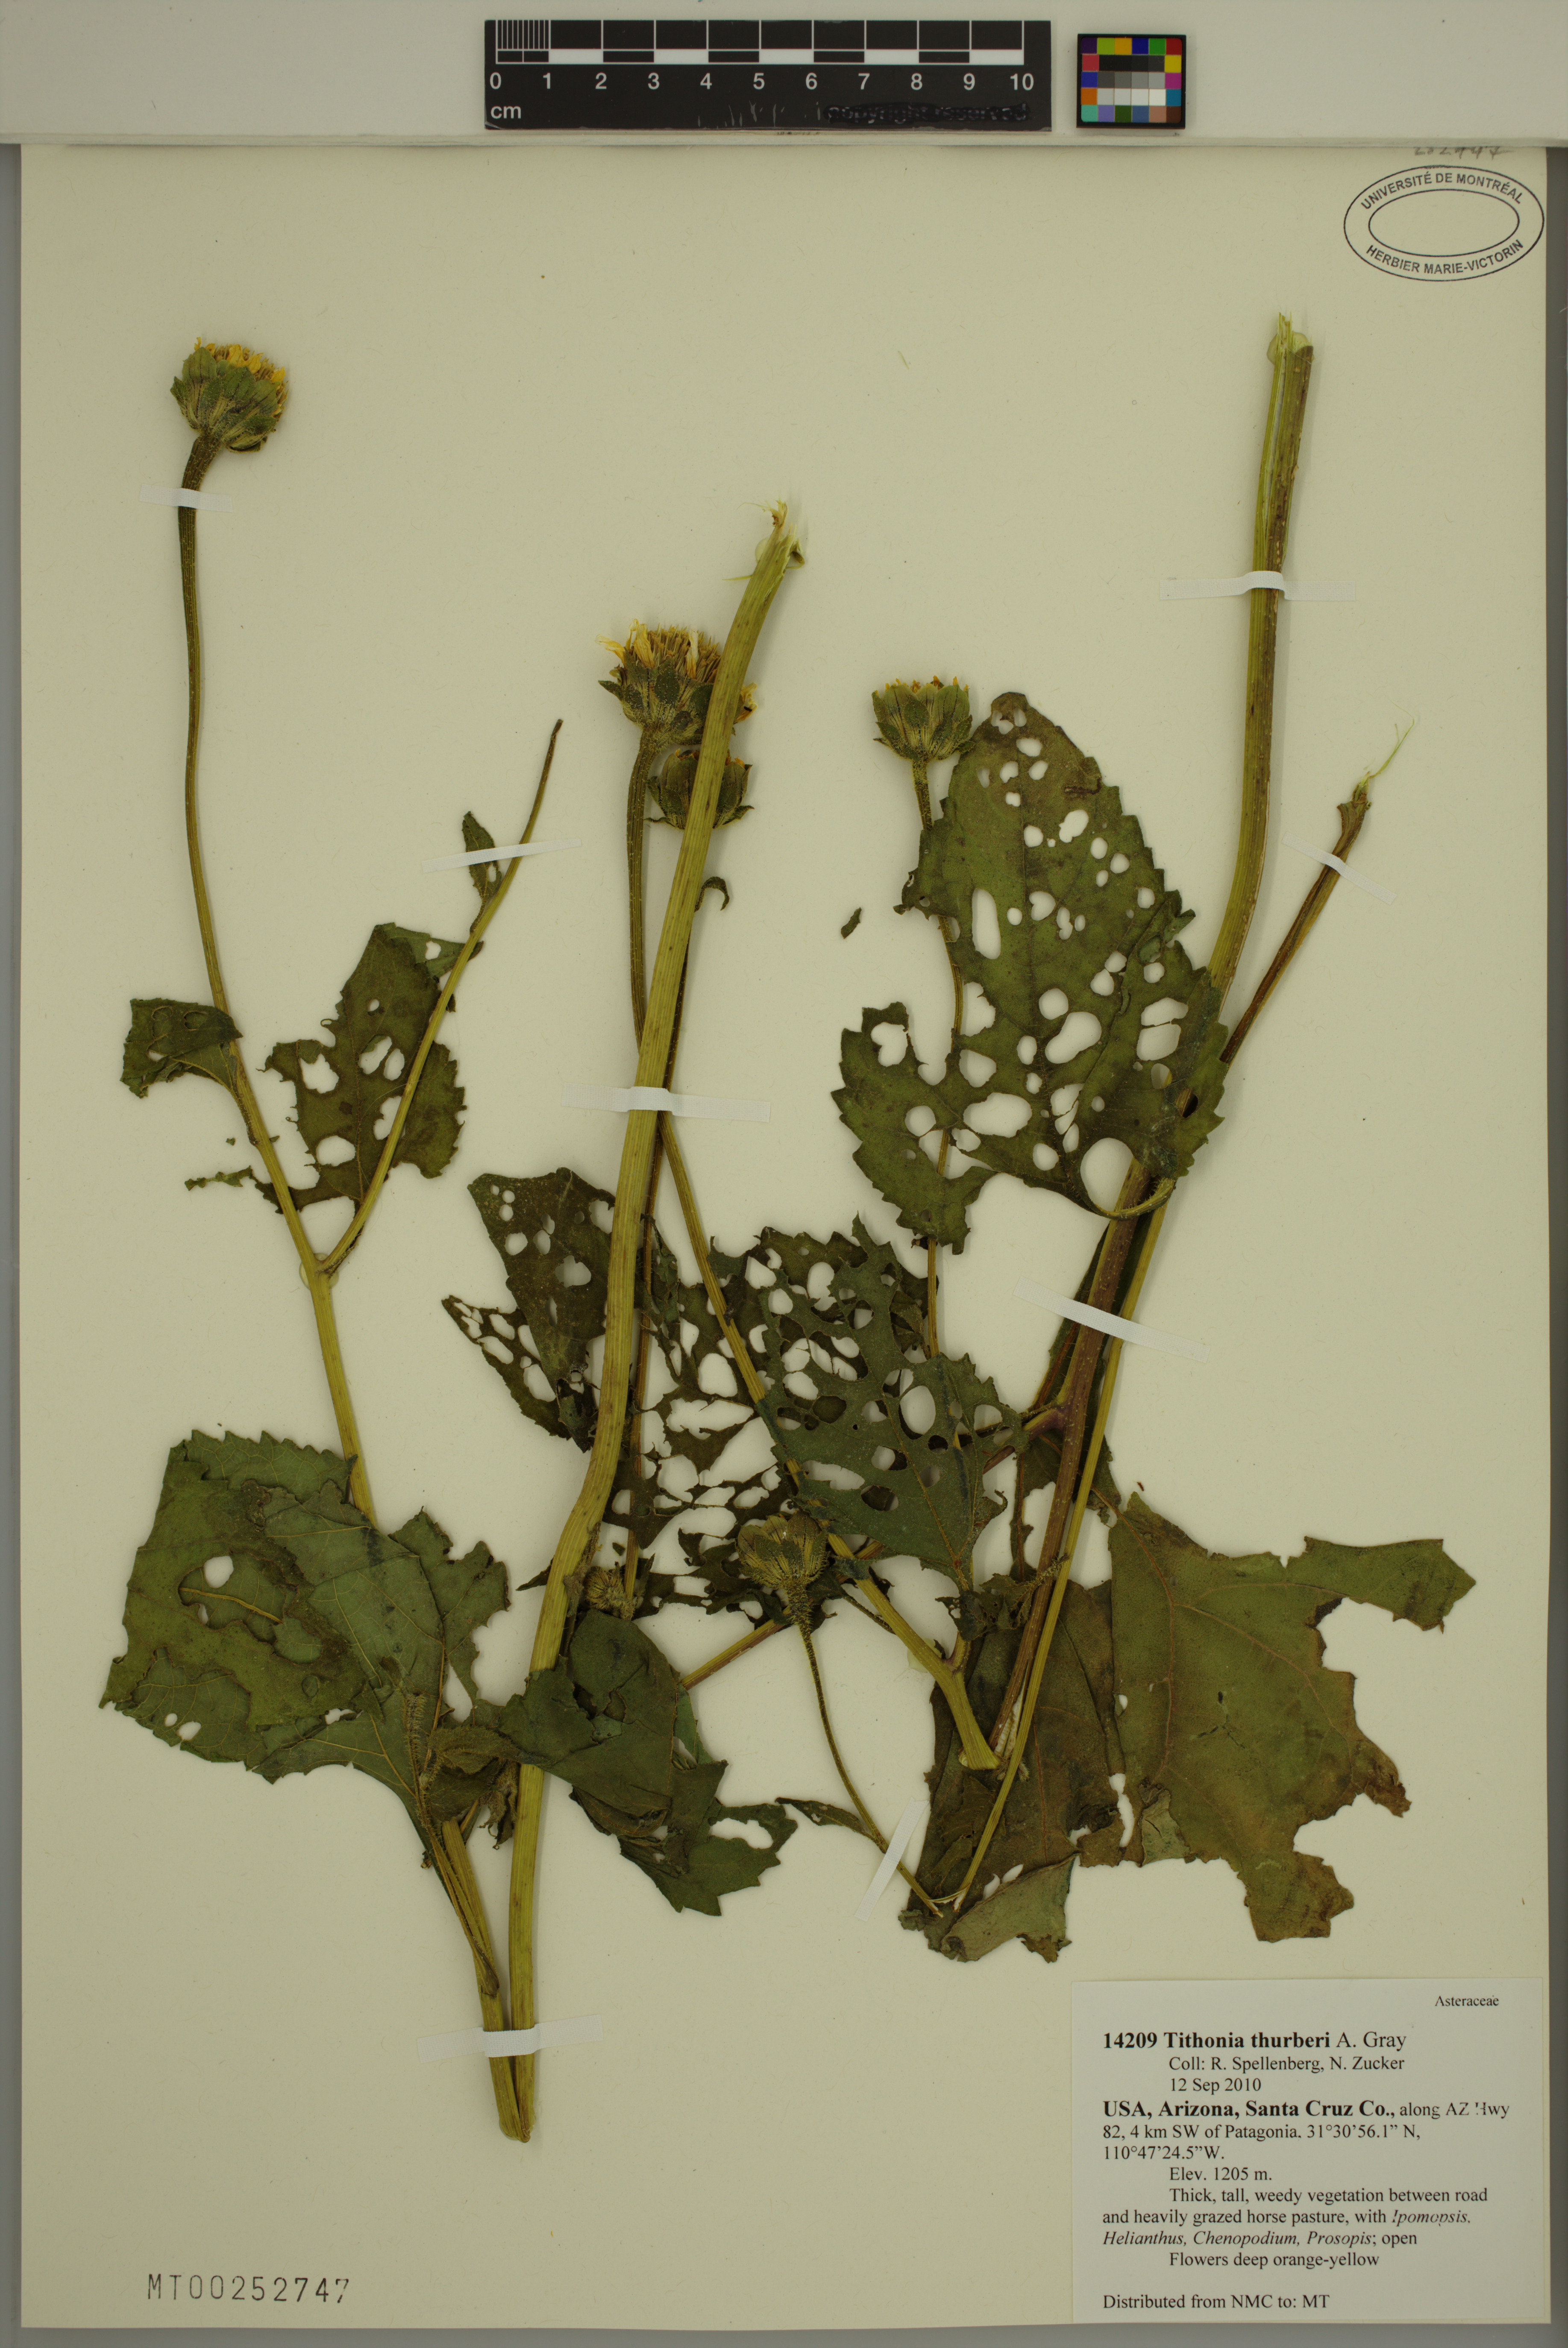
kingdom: Plantae
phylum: Tracheophyta
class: Magnoliopsida
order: Asterales
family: Asteraceae
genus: Tithonia
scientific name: Tithonia thurberi
